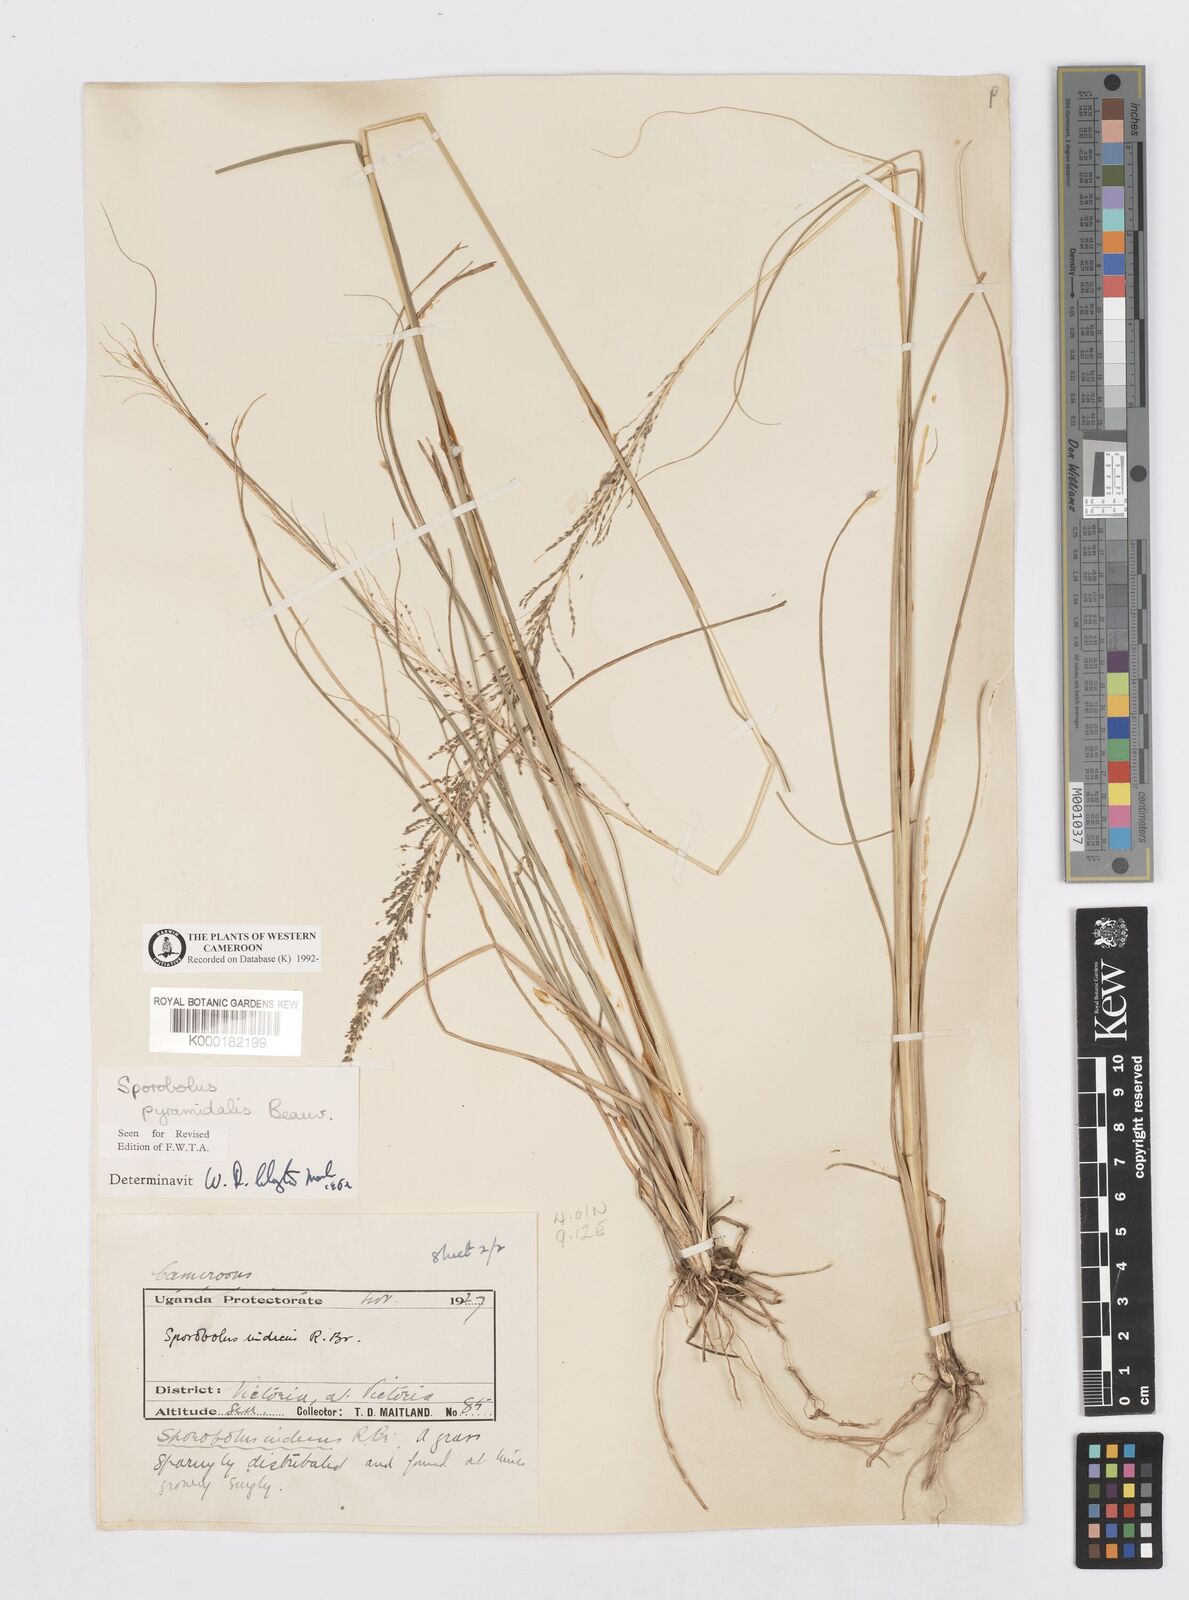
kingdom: Plantae
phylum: Tracheophyta
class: Liliopsida
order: Poales
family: Poaceae
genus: Sporobolus
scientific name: Sporobolus pyramidalis
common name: West indian dropseed
